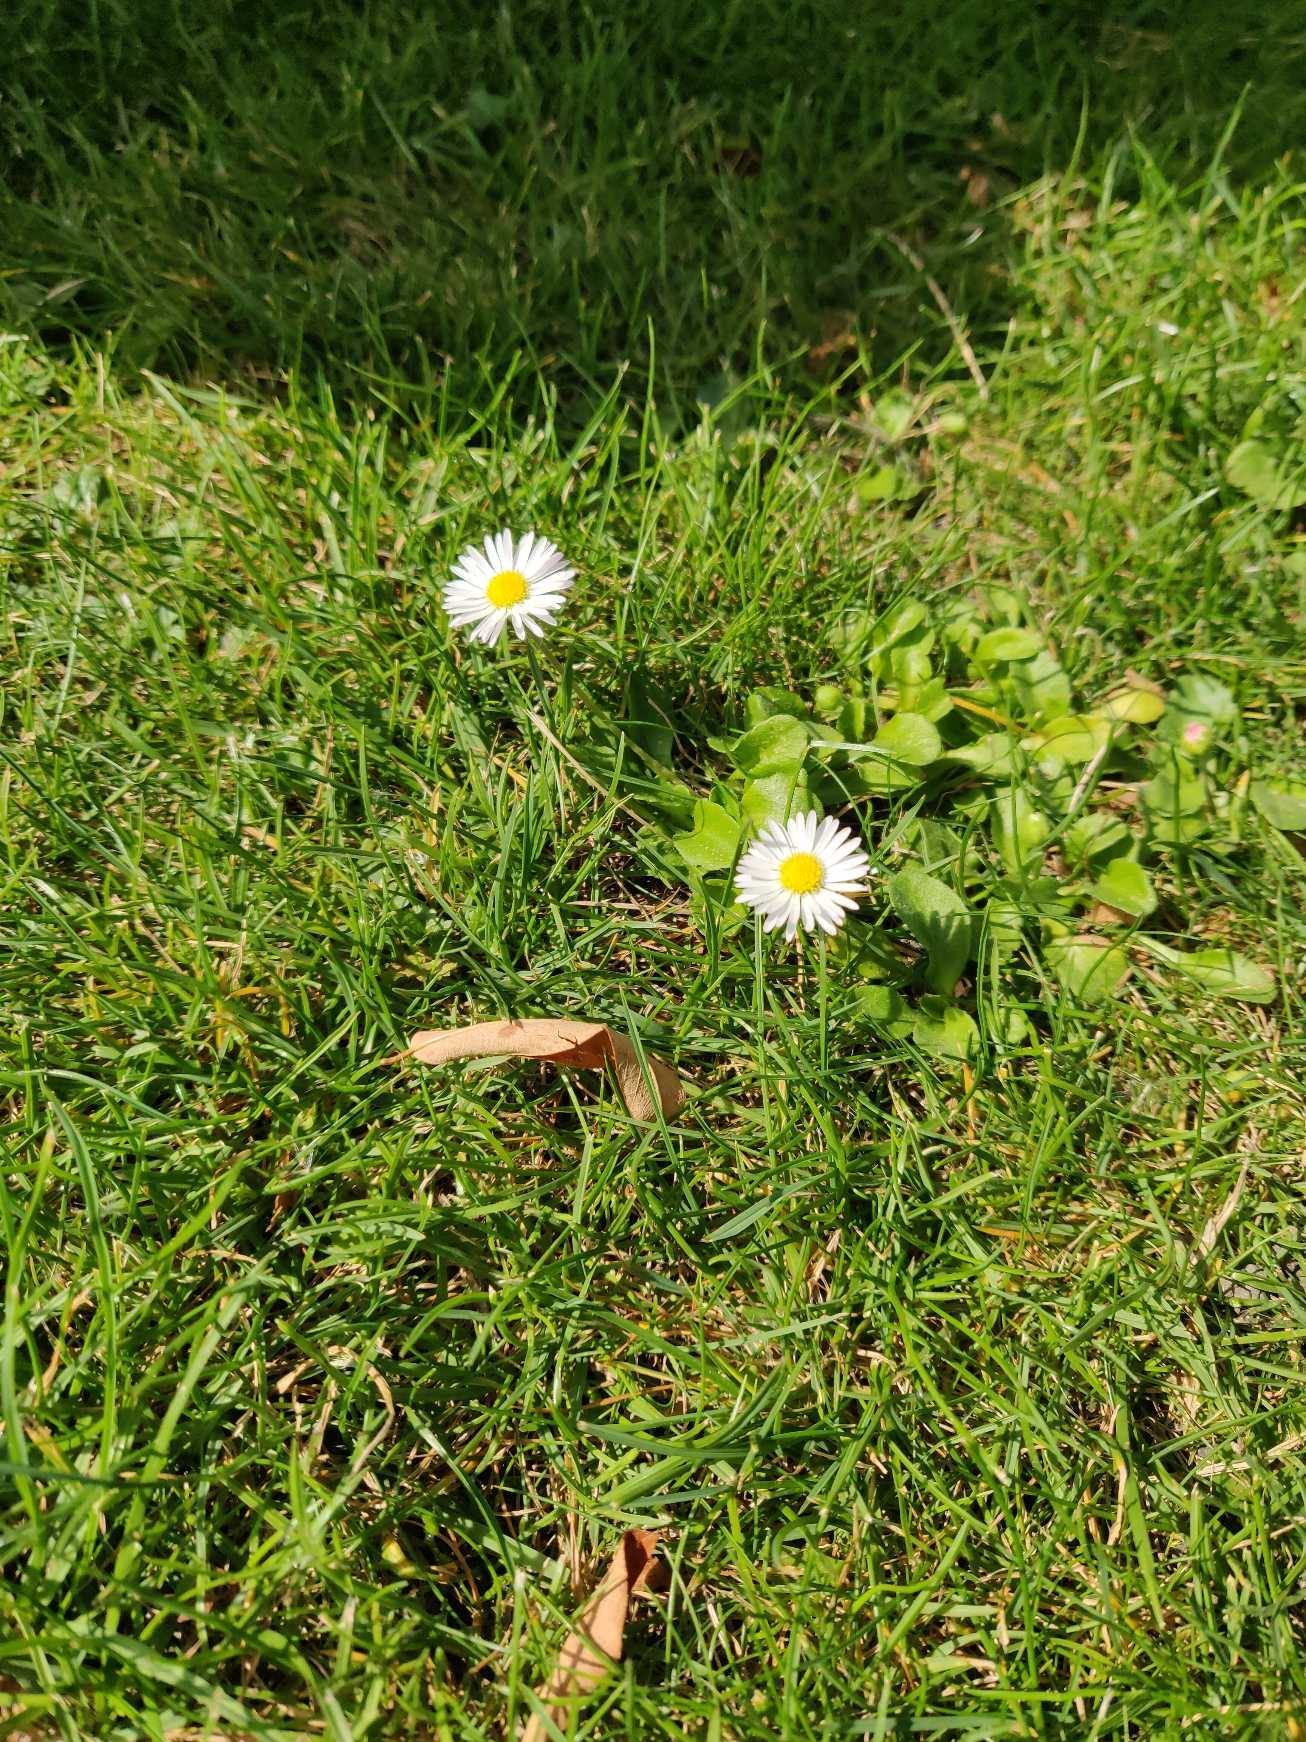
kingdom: Plantae
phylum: Tracheophyta
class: Magnoliopsida
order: Asterales
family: Asteraceae
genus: Bellis
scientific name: Bellis perennis
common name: Tusindfryd
